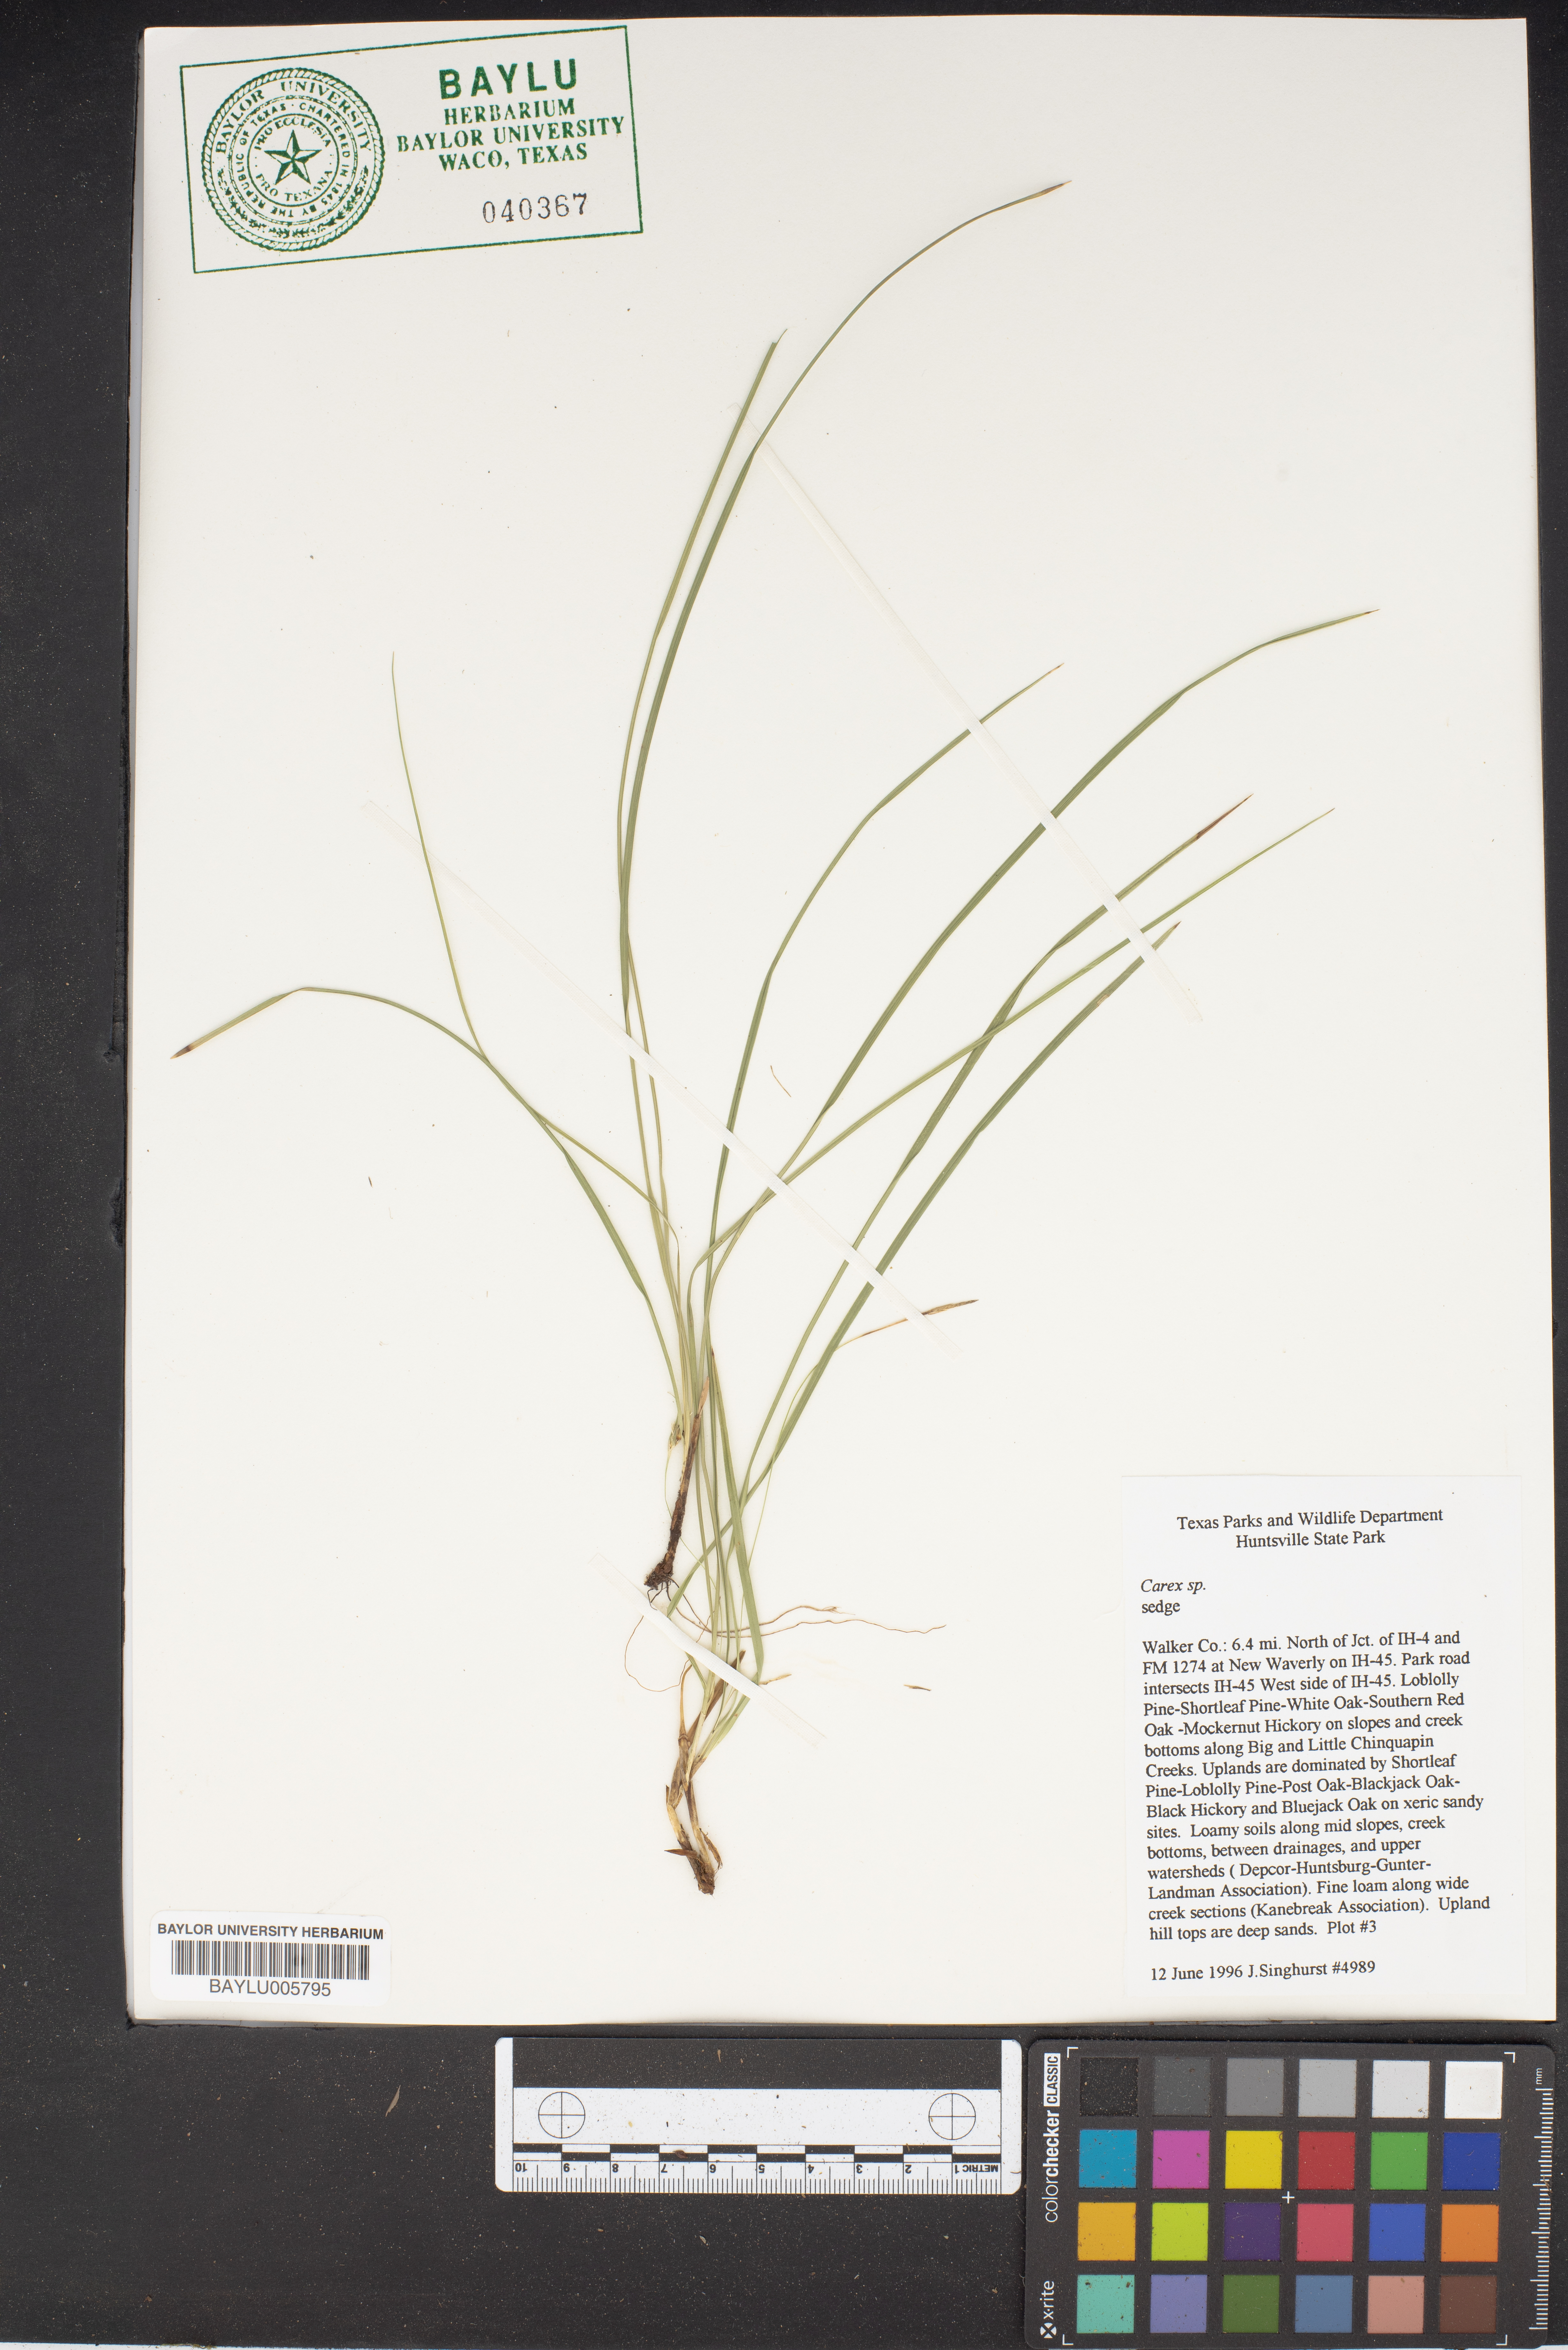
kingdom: Plantae
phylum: Tracheophyta
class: Liliopsida
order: Poales
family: Cyperaceae
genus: Carex
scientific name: Carex
